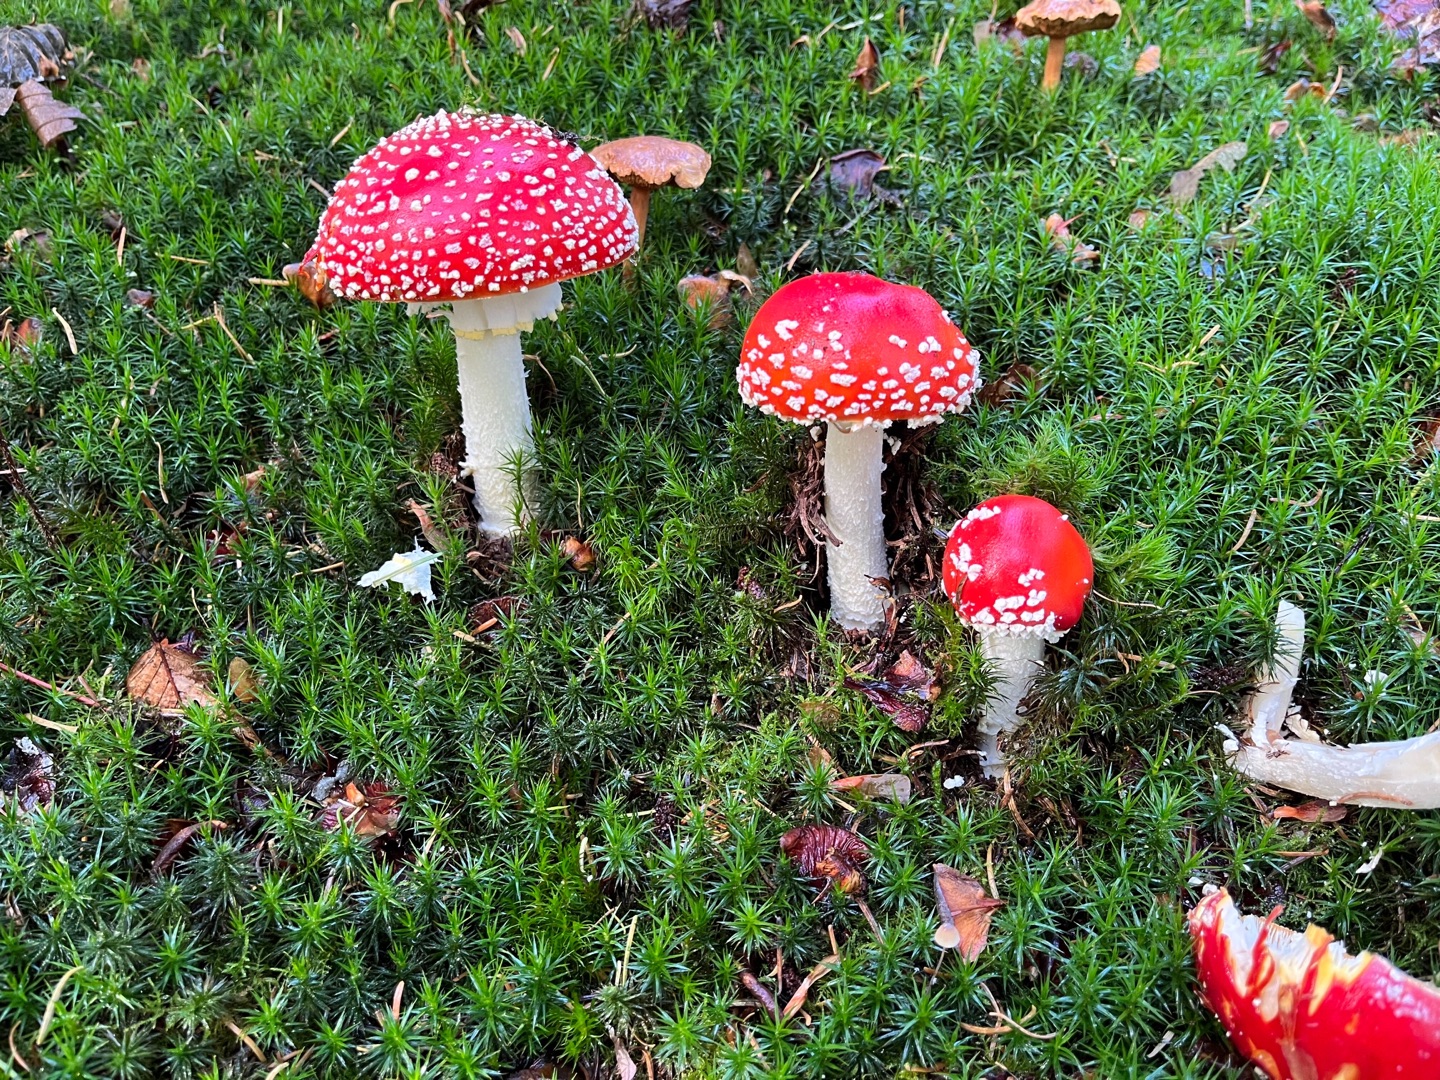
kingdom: Fungi
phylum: Basidiomycota
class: Agaricomycetes
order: Agaricales
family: Amanitaceae
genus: Amanita
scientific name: Amanita muscaria
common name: Rød fluesvamp
